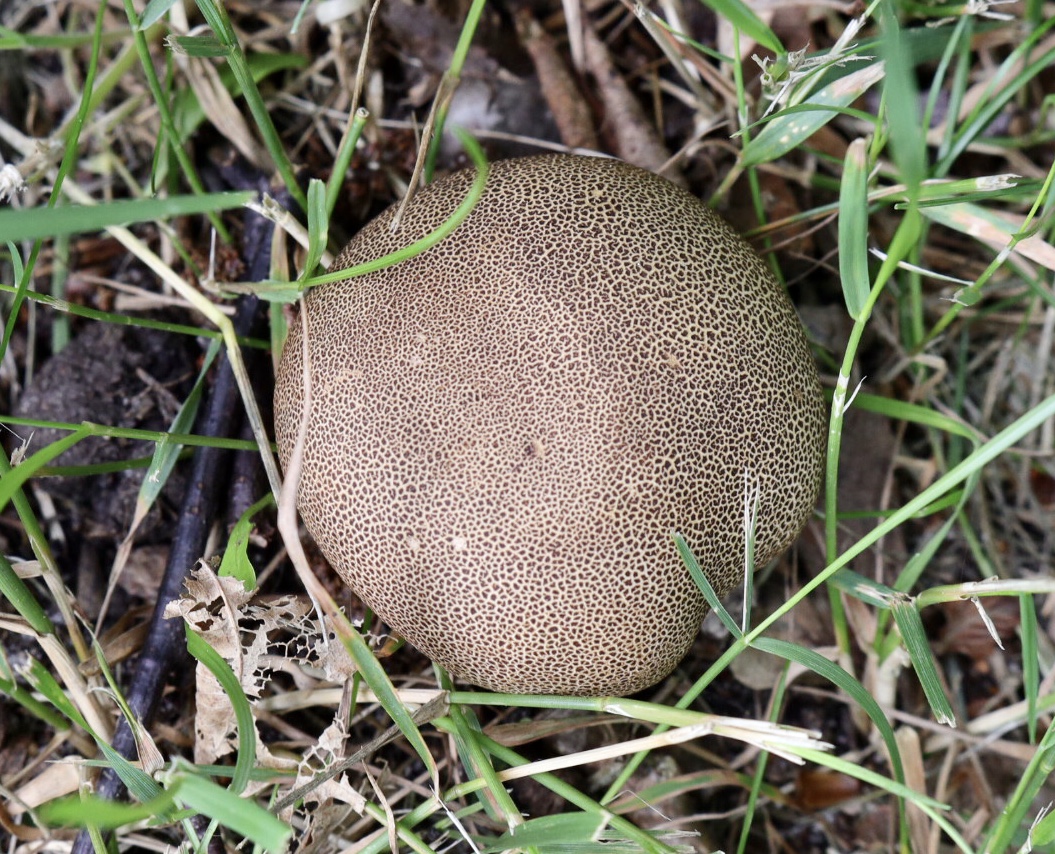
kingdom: Fungi
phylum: Basidiomycota
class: Agaricomycetes
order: Boletales
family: Sclerodermataceae
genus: Scleroderma
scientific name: Scleroderma areolatum
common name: plettet bruskbold
